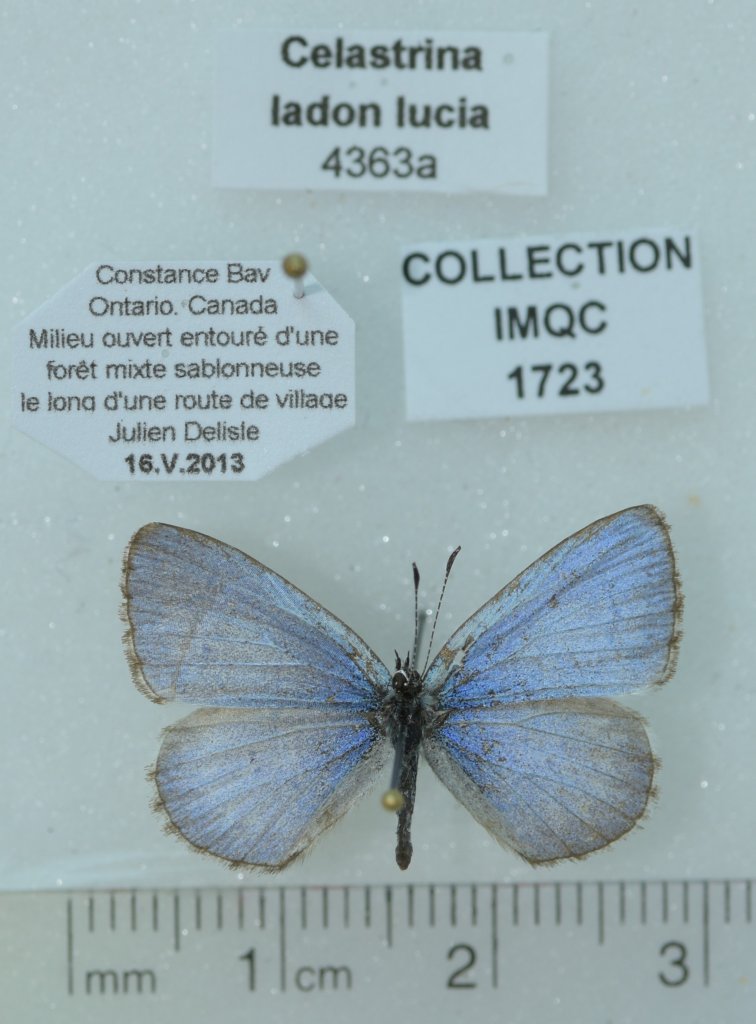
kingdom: Animalia
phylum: Arthropoda
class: Insecta
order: Lepidoptera
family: Lycaenidae
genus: Celastrina
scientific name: Celastrina lucia
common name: Northern Spring Azure
